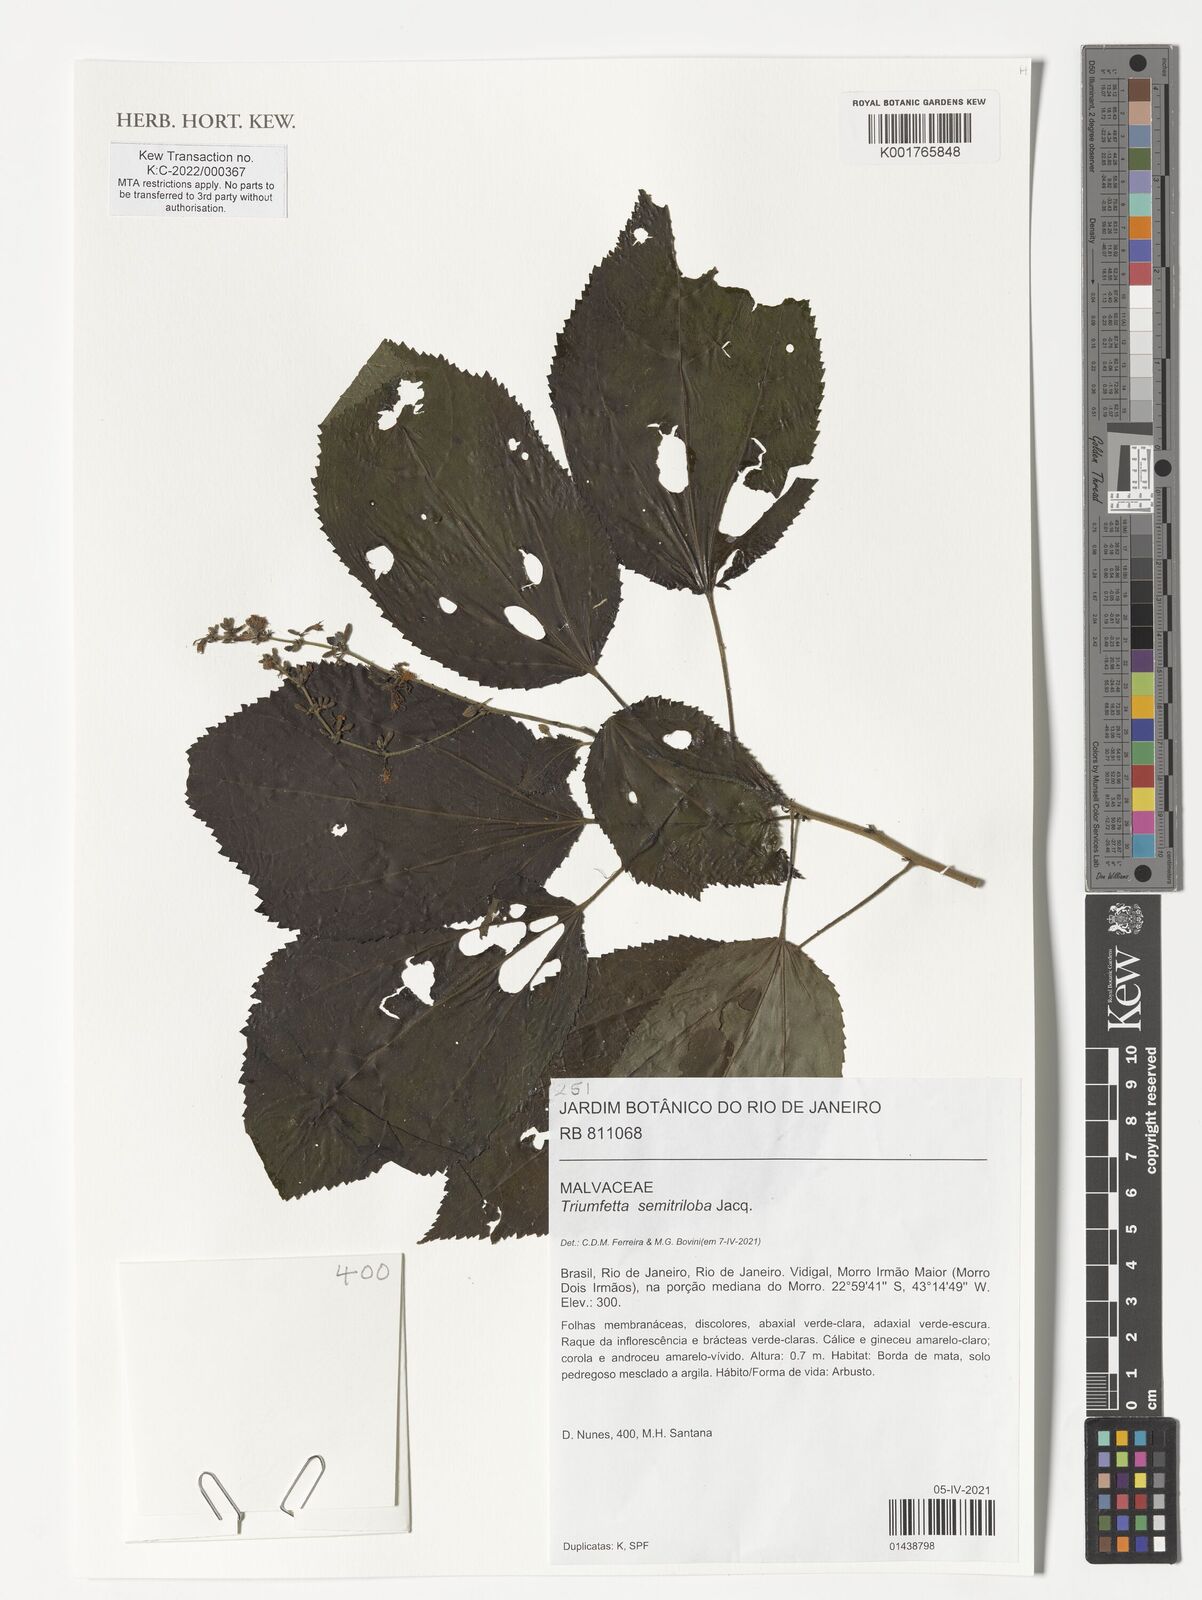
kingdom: Plantae
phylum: Tracheophyta
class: Magnoliopsida
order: Malvales
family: Malvaceae
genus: Triumfetta
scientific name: Triumfetta semitriloba
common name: Sacramento burbark
